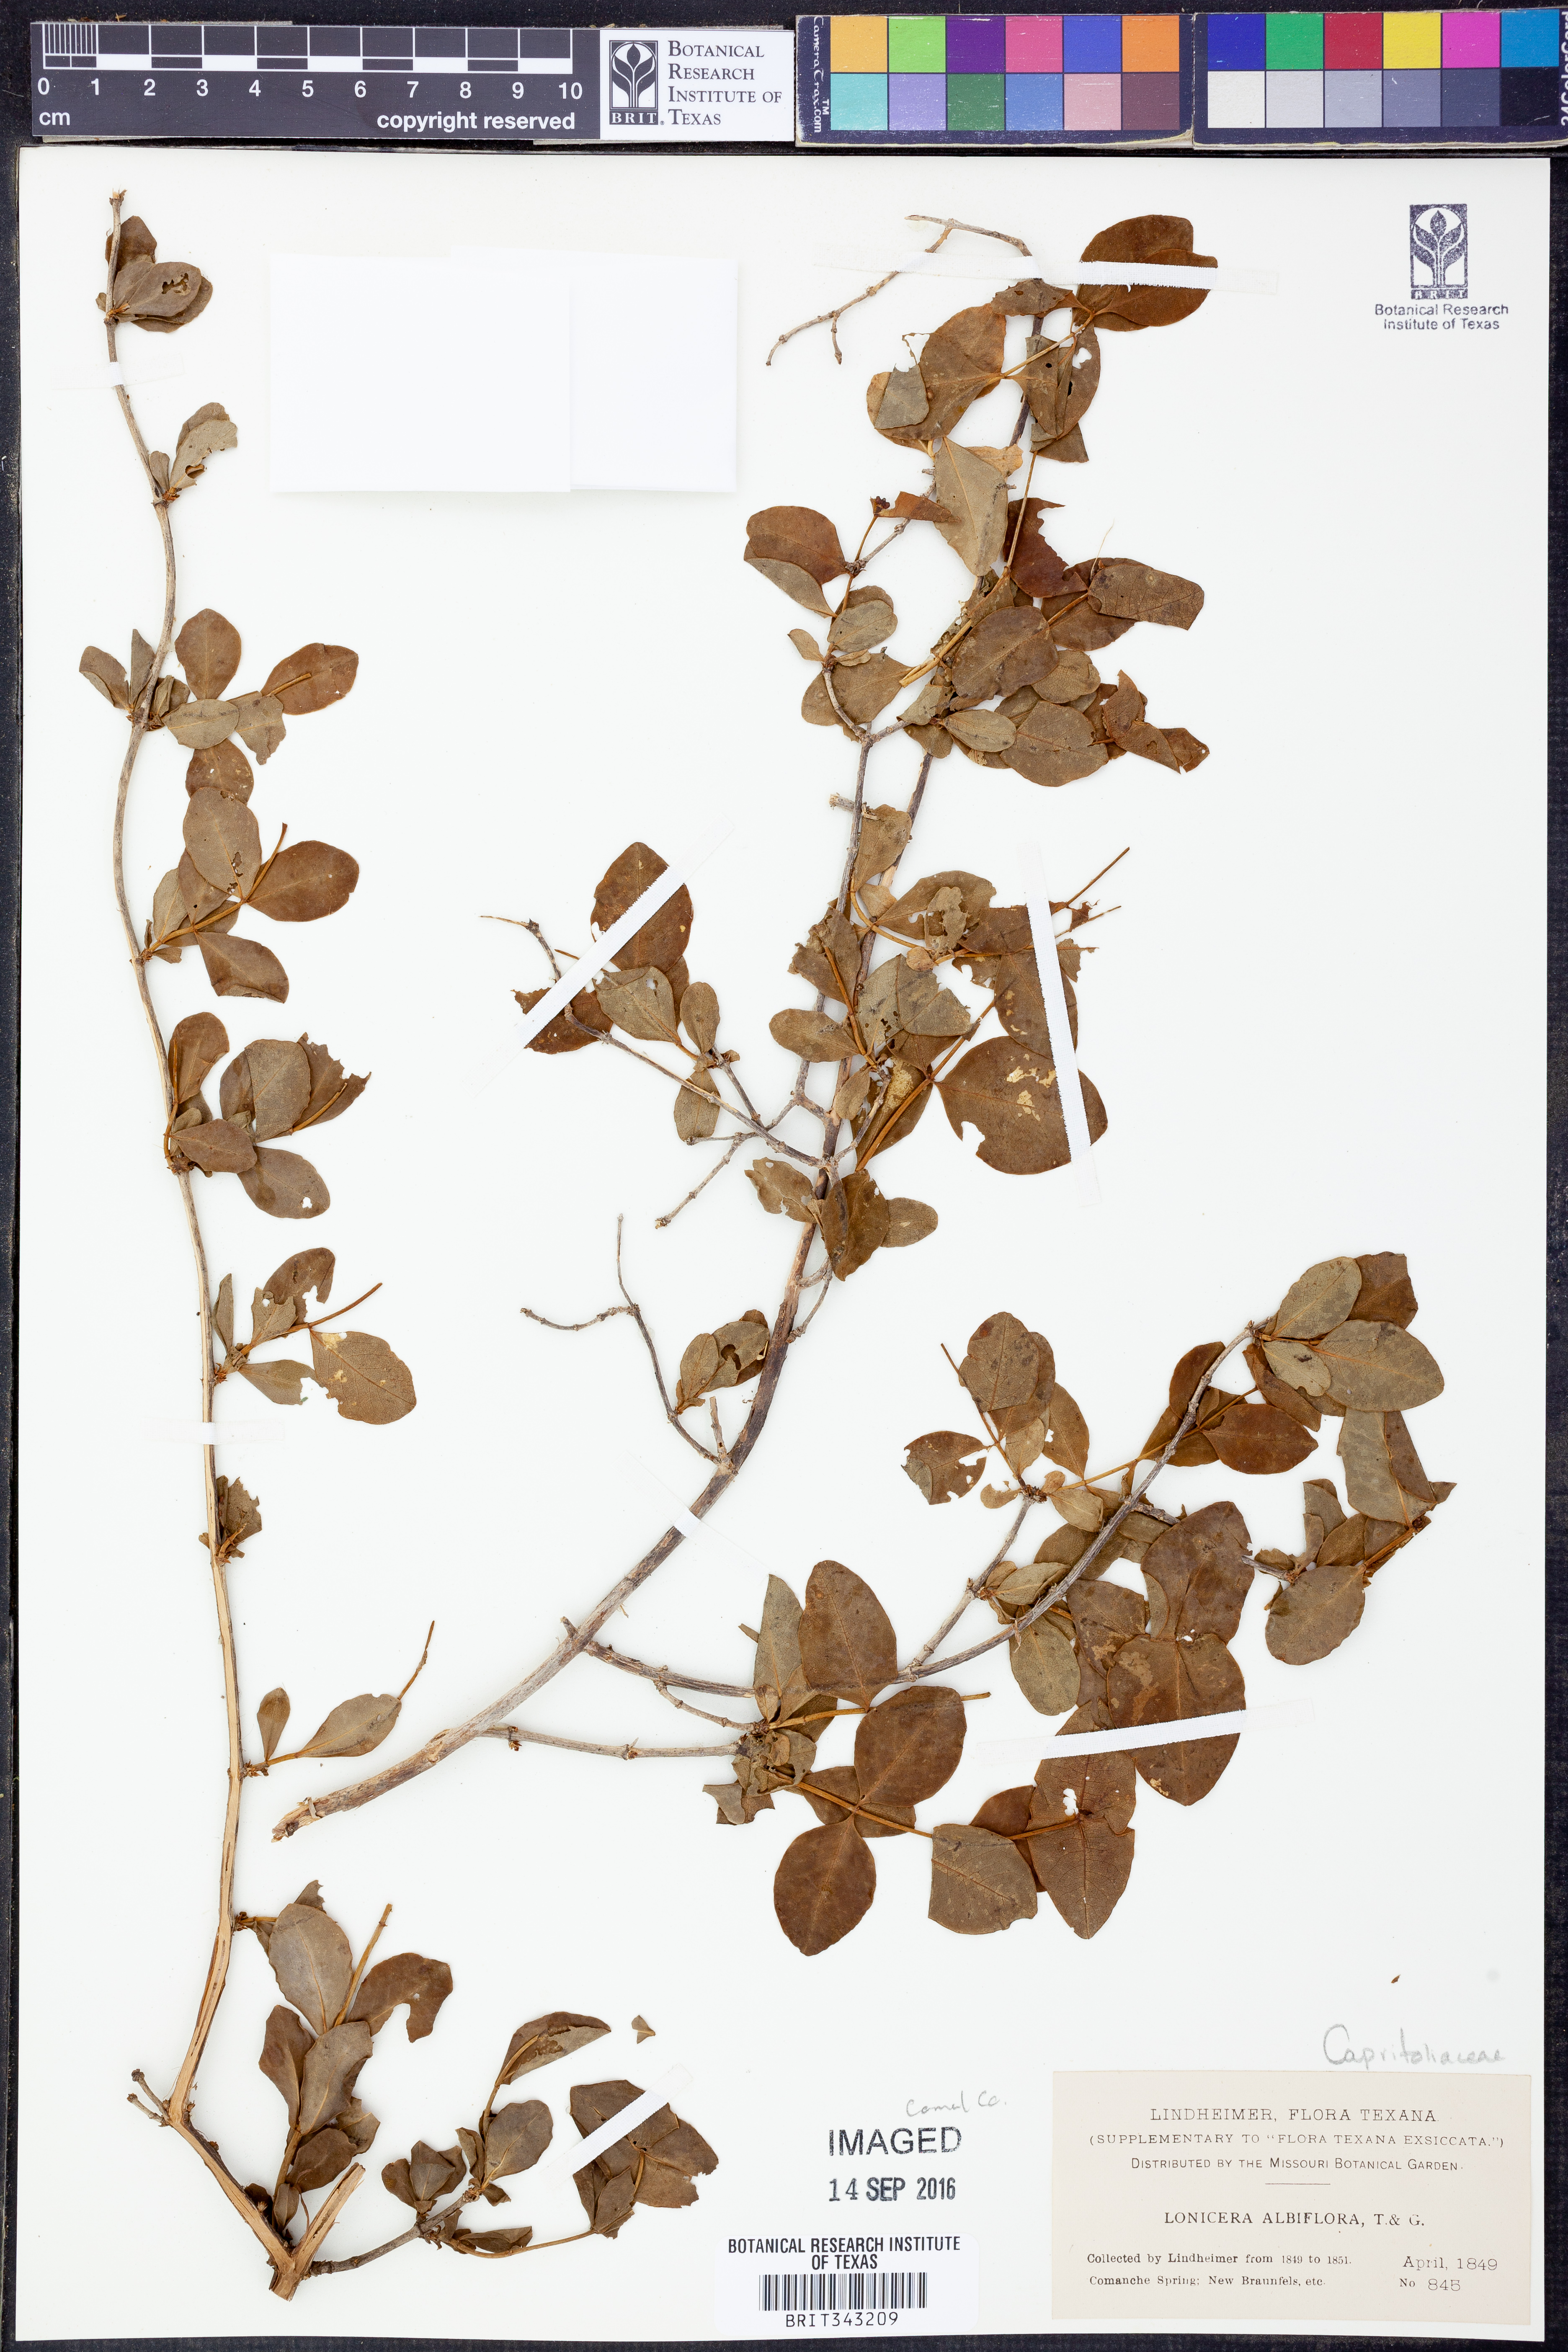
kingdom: Plantae
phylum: Tracheophyta
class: Magnoliopsida
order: Dipsacales
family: Caprifoliaceae
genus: Lonicera
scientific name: Lonicera albiflora
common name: White honeysuckle
